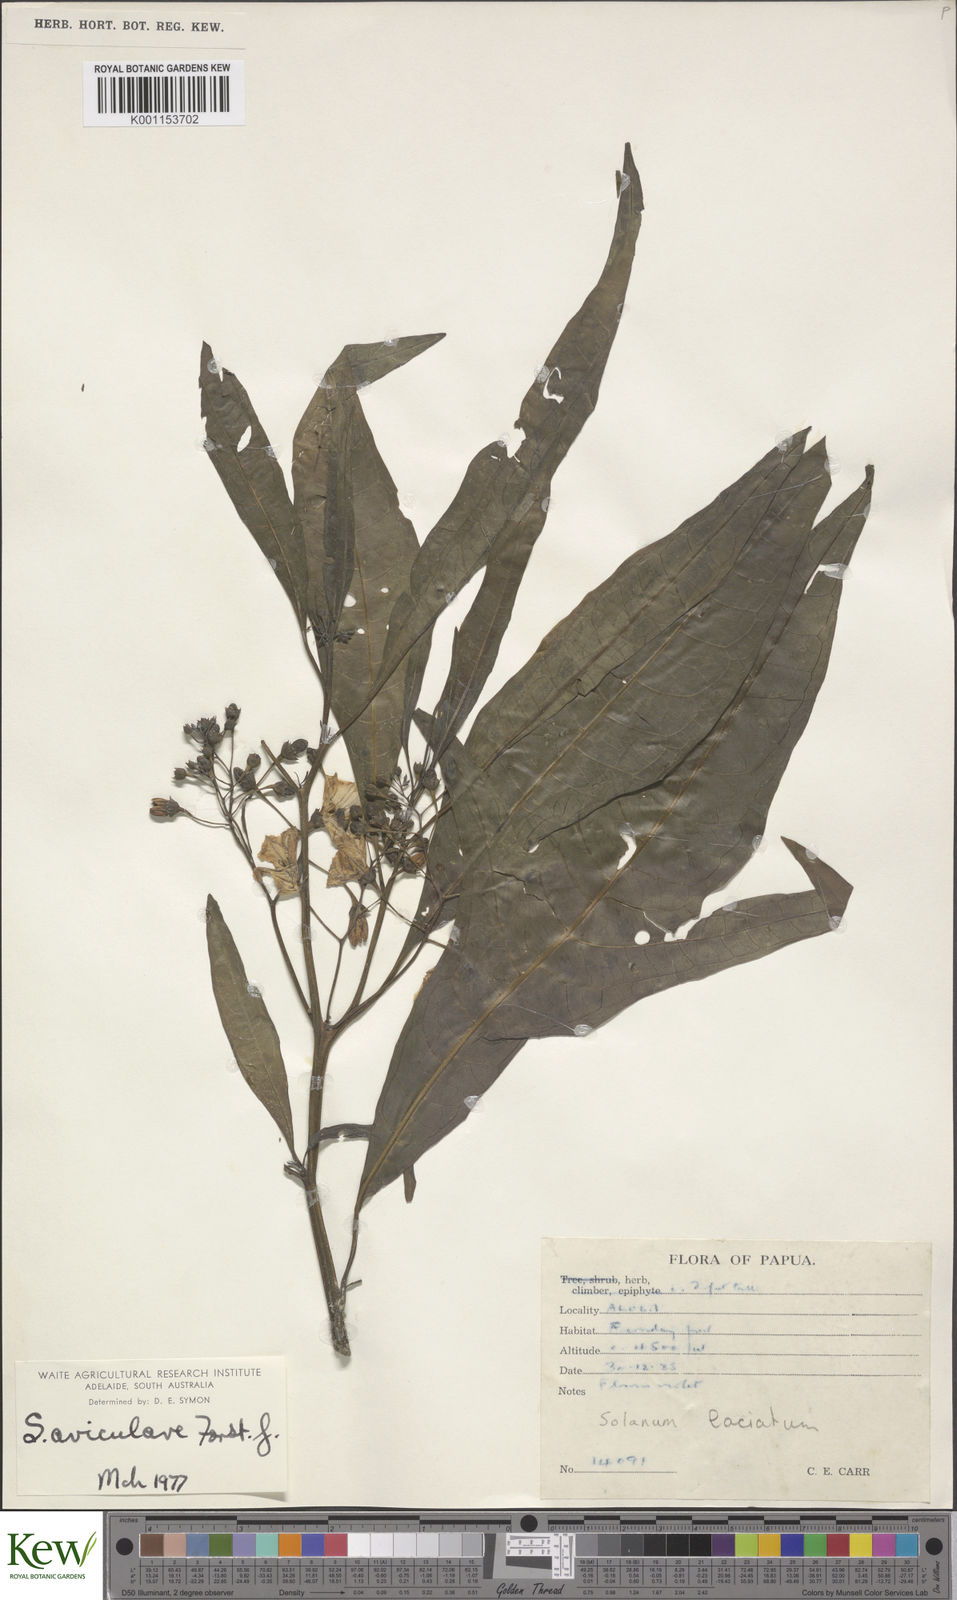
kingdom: Plantae
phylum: Tracheophyta
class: Magnoliopsida
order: Solanales
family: Solanaceae
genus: Solanum
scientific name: Solanum aviculare
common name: New zealand nightshade
